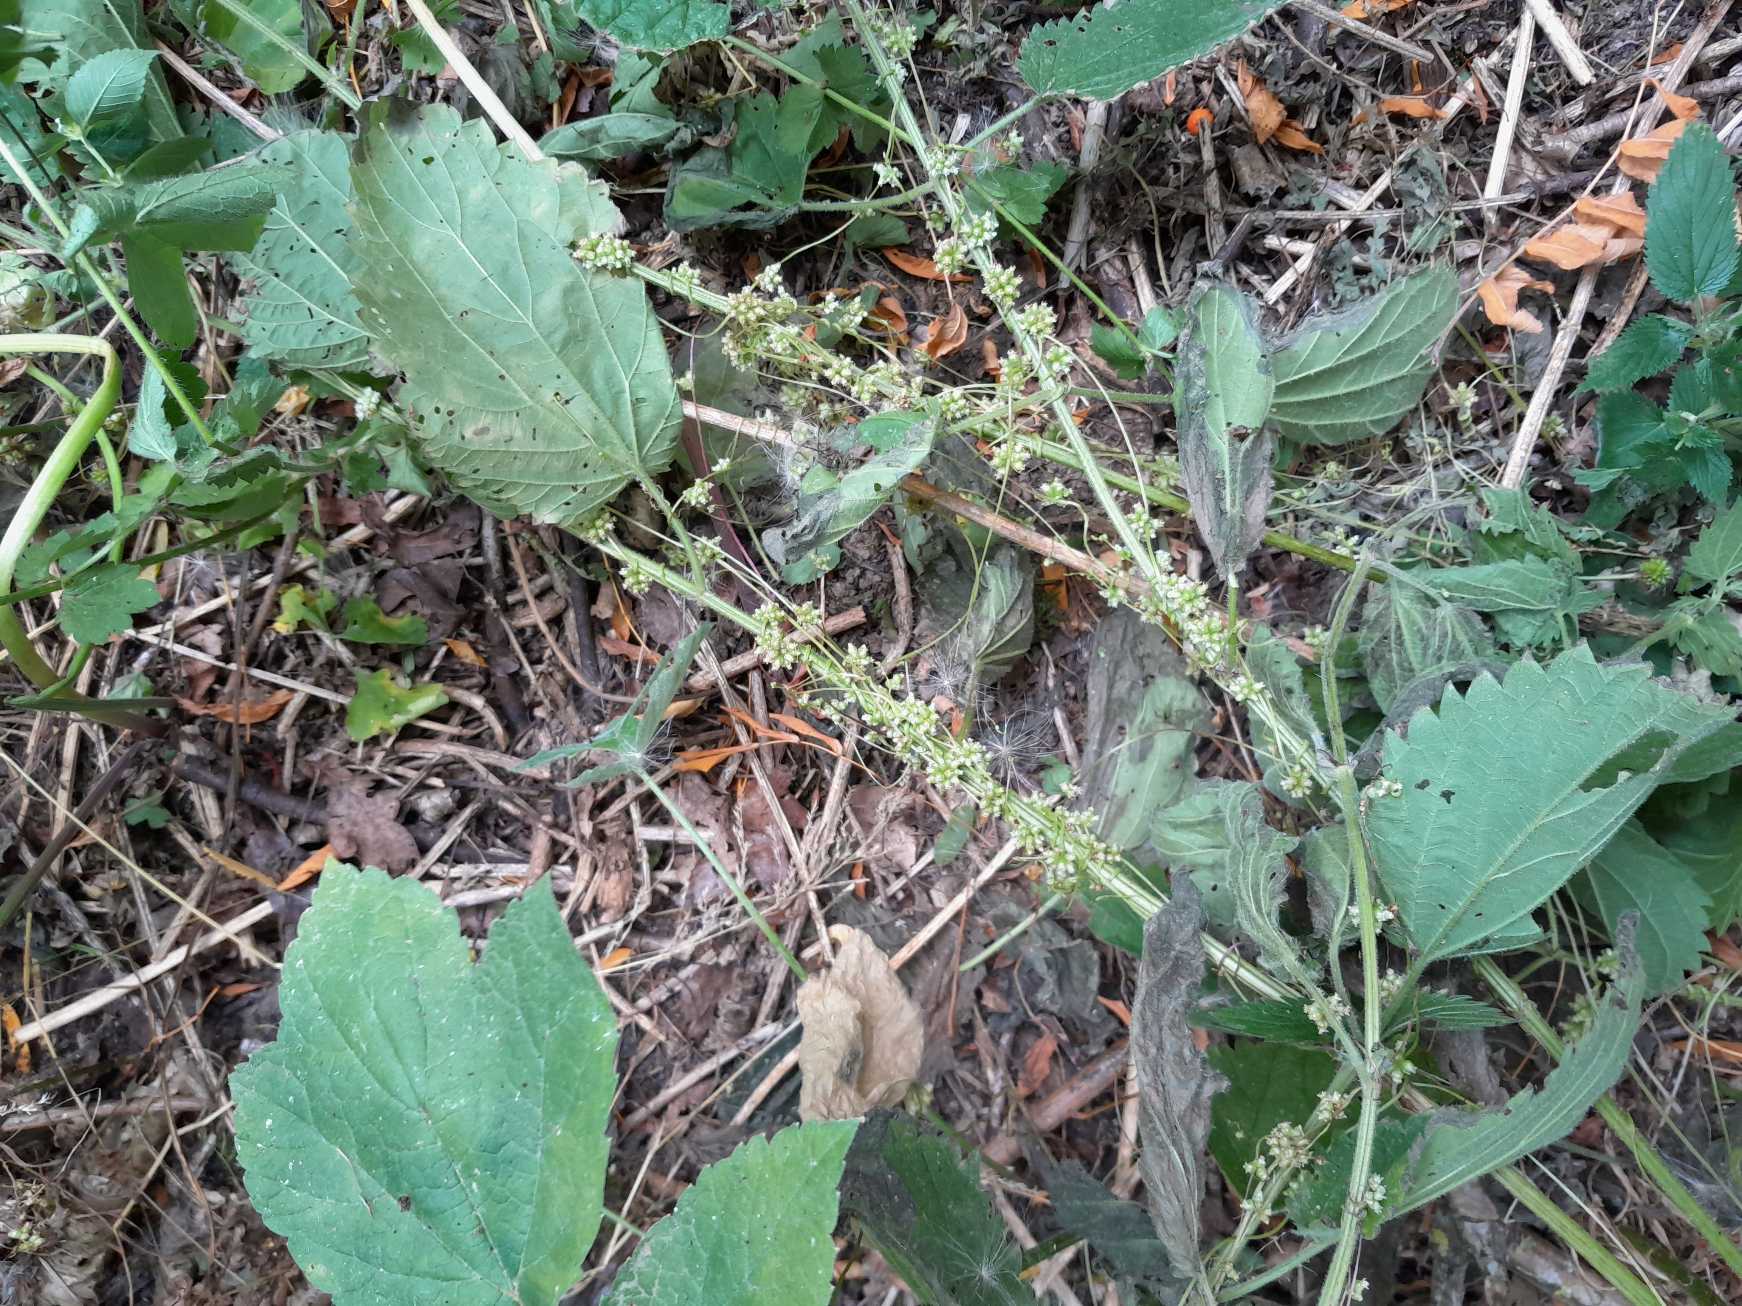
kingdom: Plantae
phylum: Tracheophyta
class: Magnoliopsida
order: Solanales
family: Convolvulaceae
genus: Cuscuta
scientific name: Cuscuta europaea
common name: Nælde-silke
